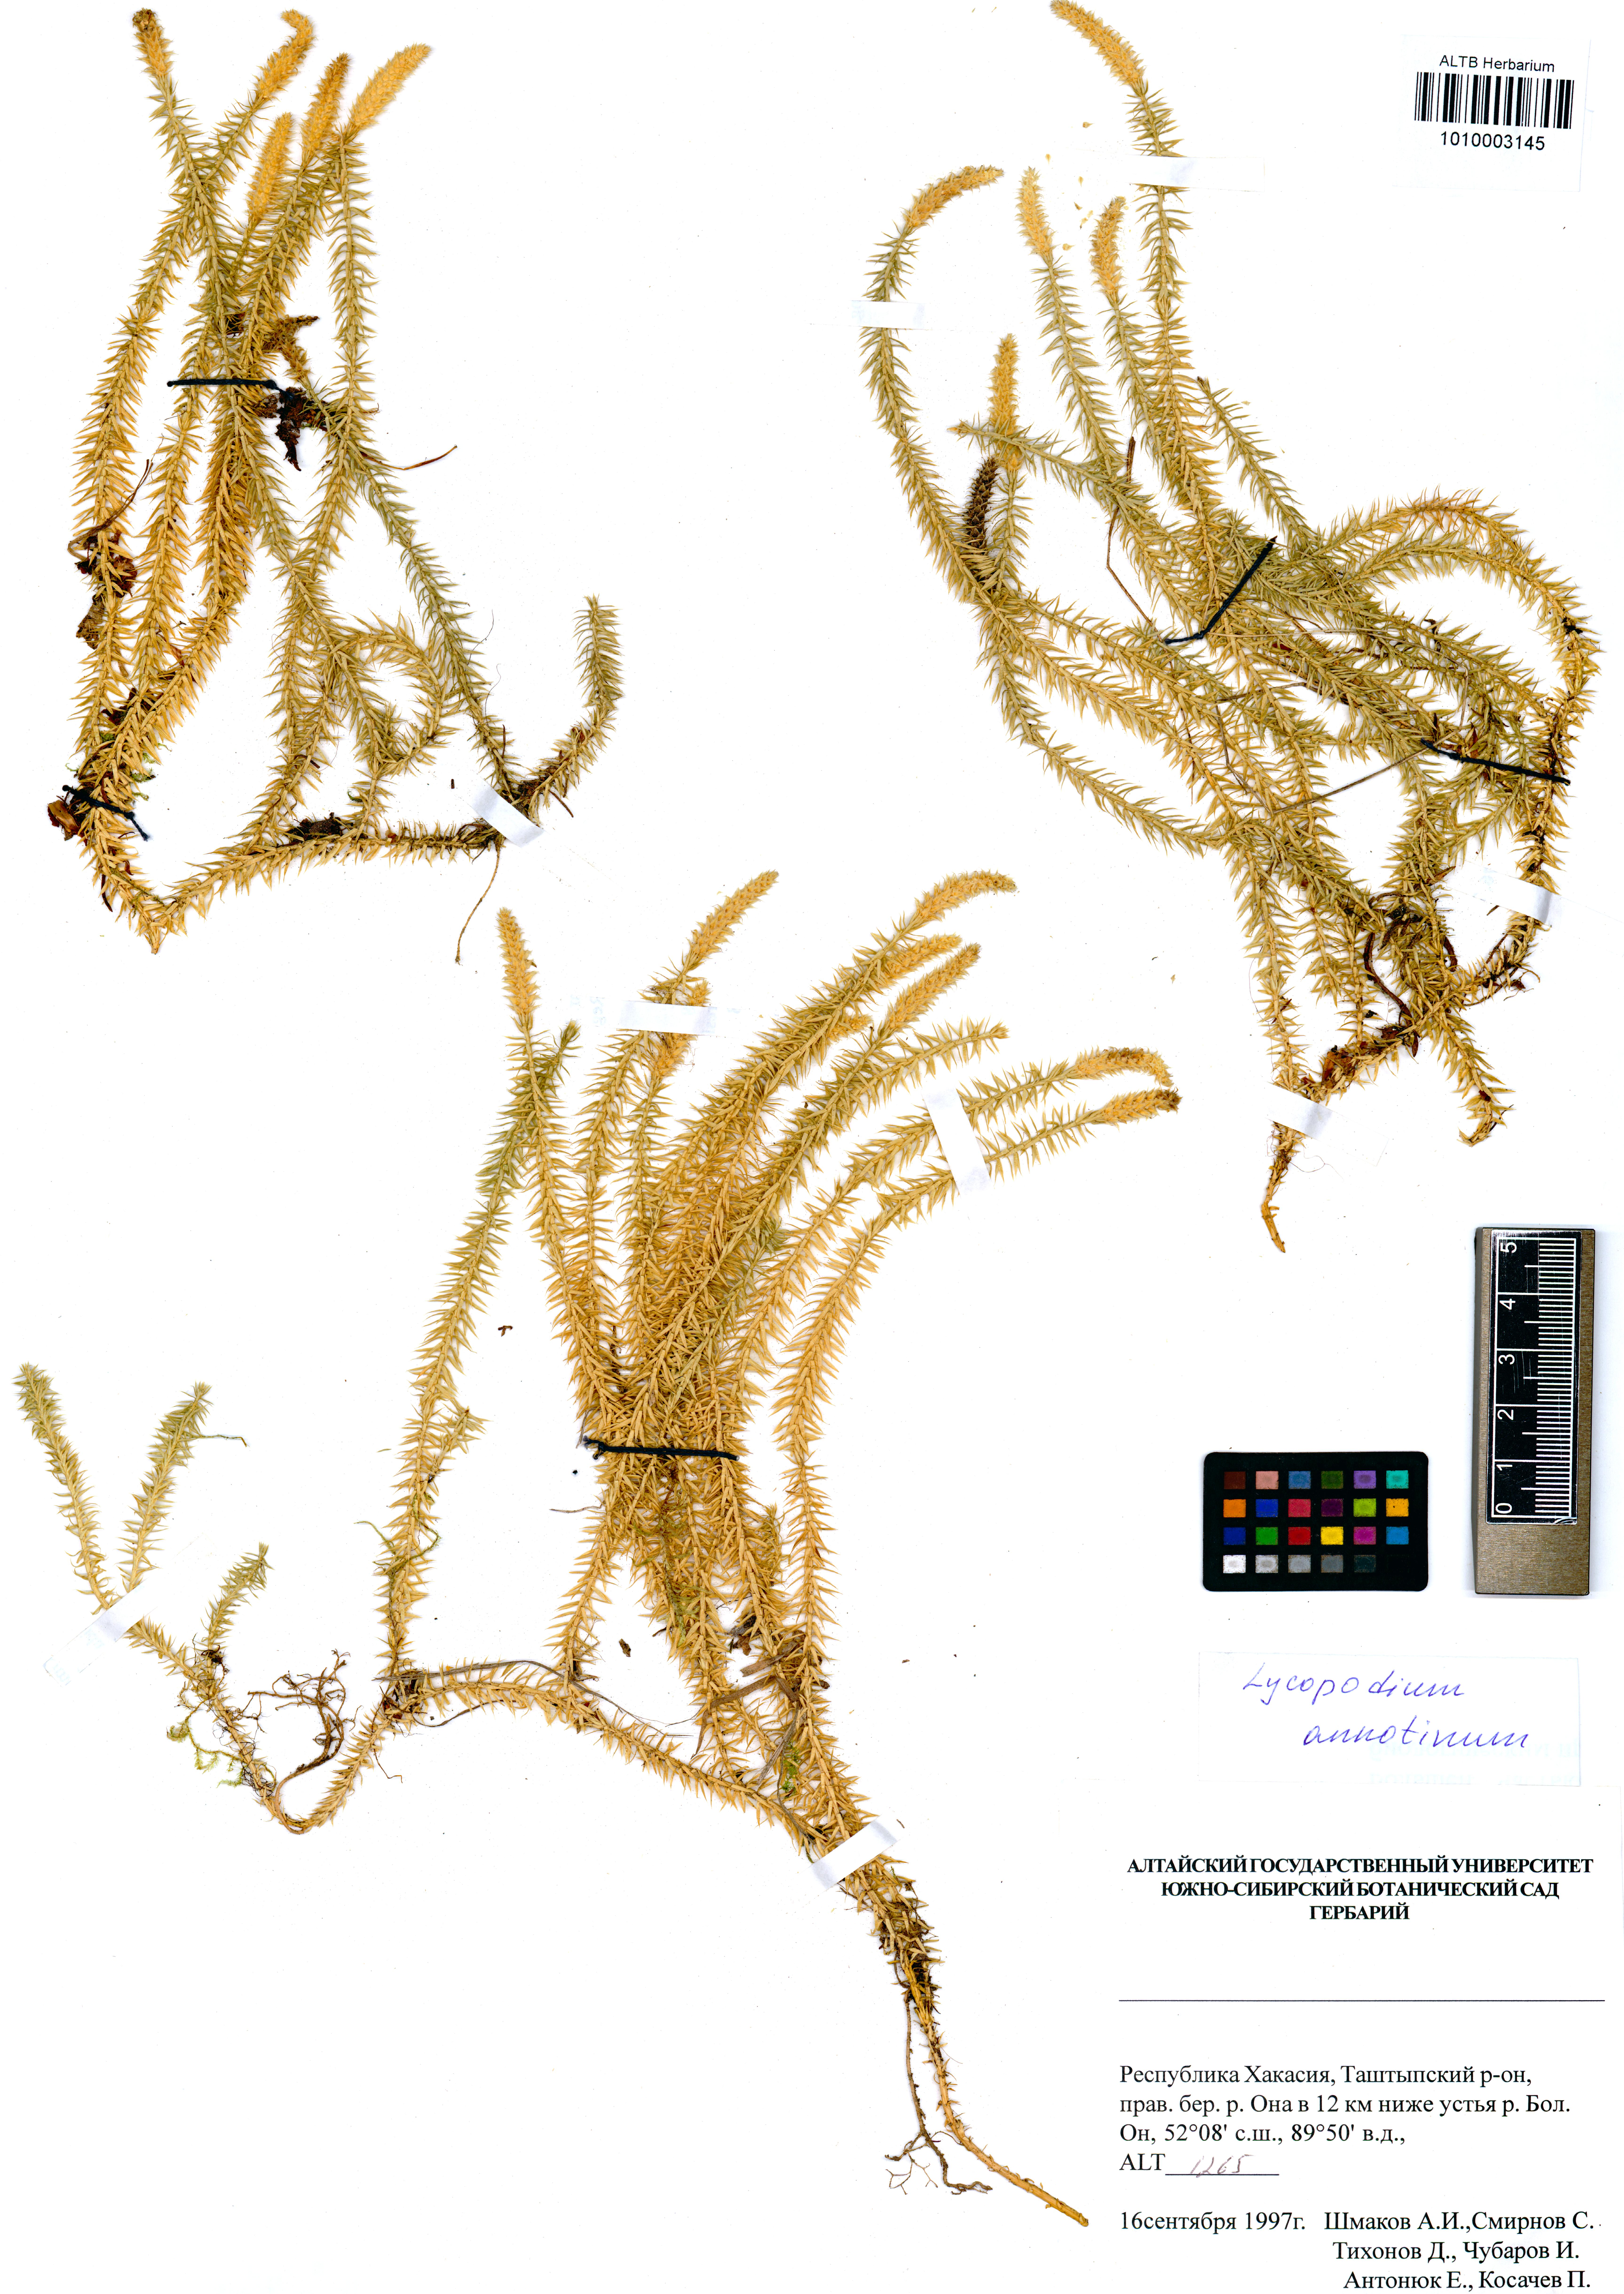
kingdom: Plantae
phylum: Tracheophyta
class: Lycopodiopsida
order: Lycopodiales
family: Lycopodiaceae
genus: Spinulum
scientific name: Spinulum annotinum
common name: Interrupted club-moss
